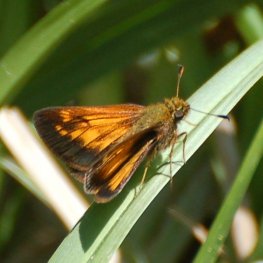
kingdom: Animalia
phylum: Arthropoda
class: Insecta
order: Lepidoptera
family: Hesperiidae
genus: Lon
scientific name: Lon hobomok
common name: Hobomok Skipper
